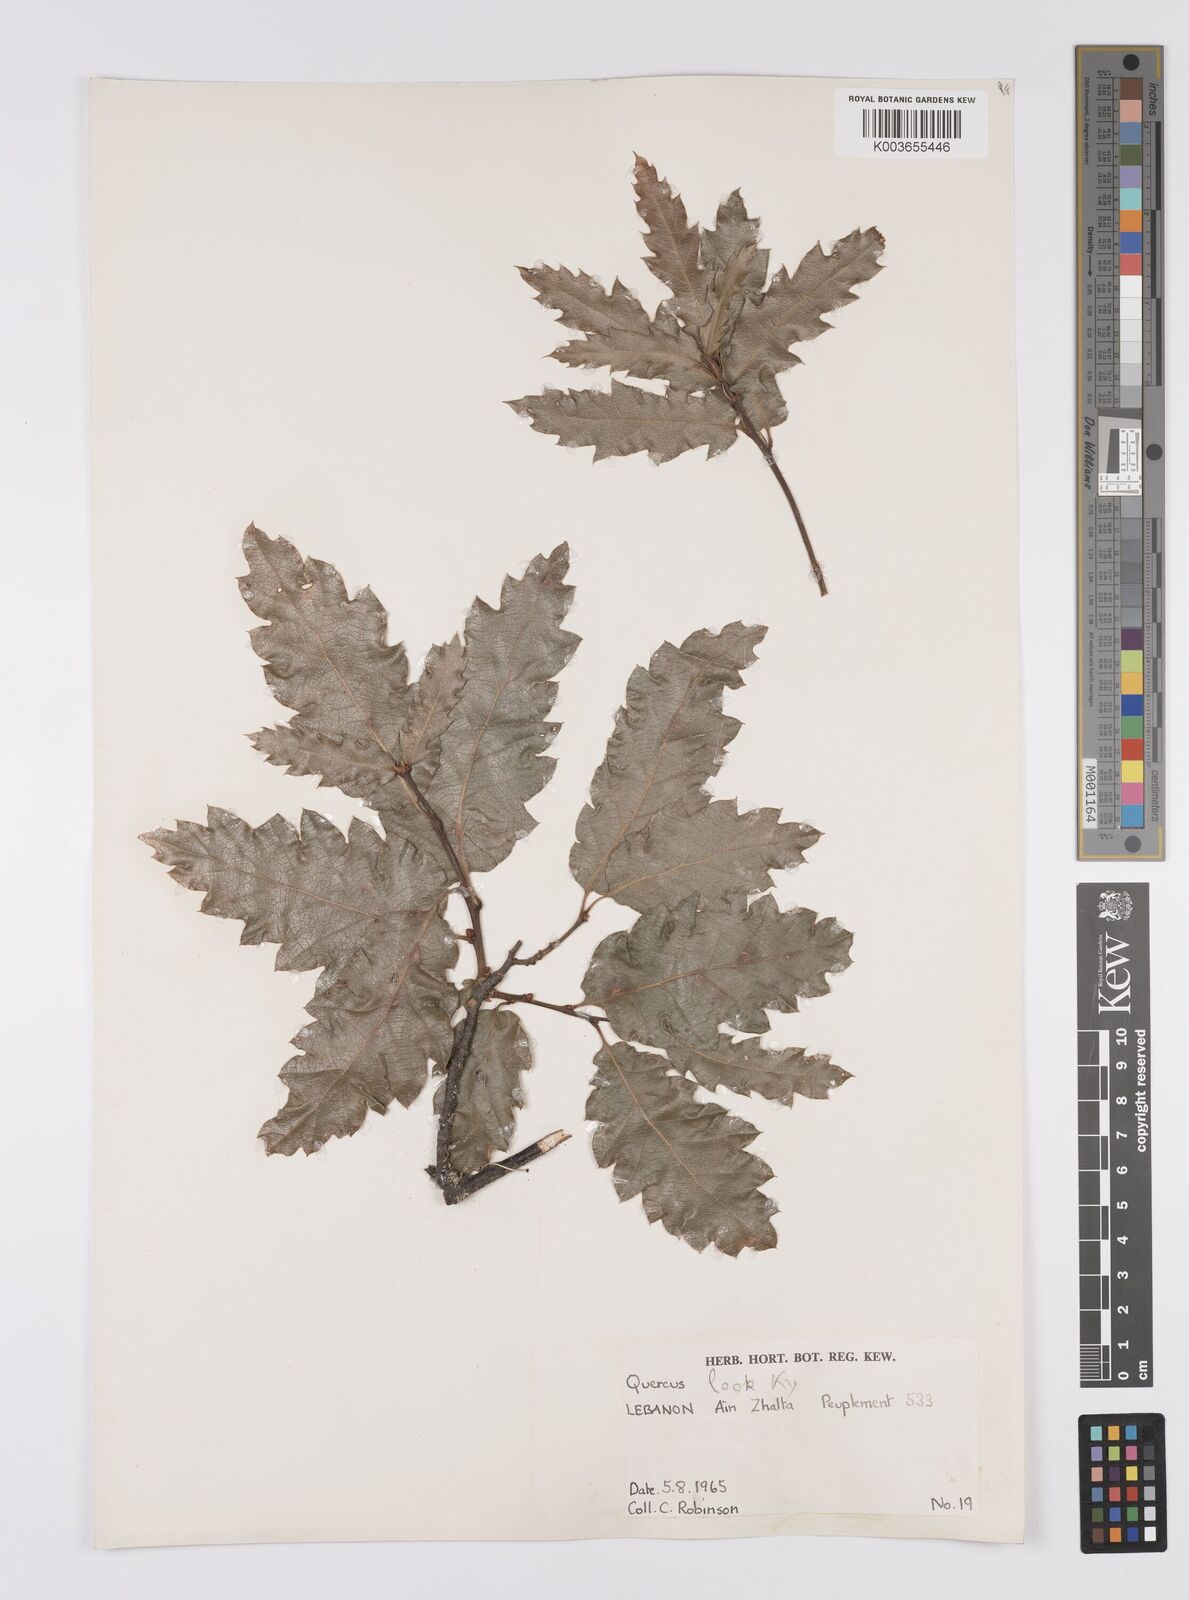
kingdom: Plantae
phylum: Tracheophyta
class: Magnoliopsida
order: Fagales
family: Fagaceae
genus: Quercus
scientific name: Quercus look
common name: Look oak
